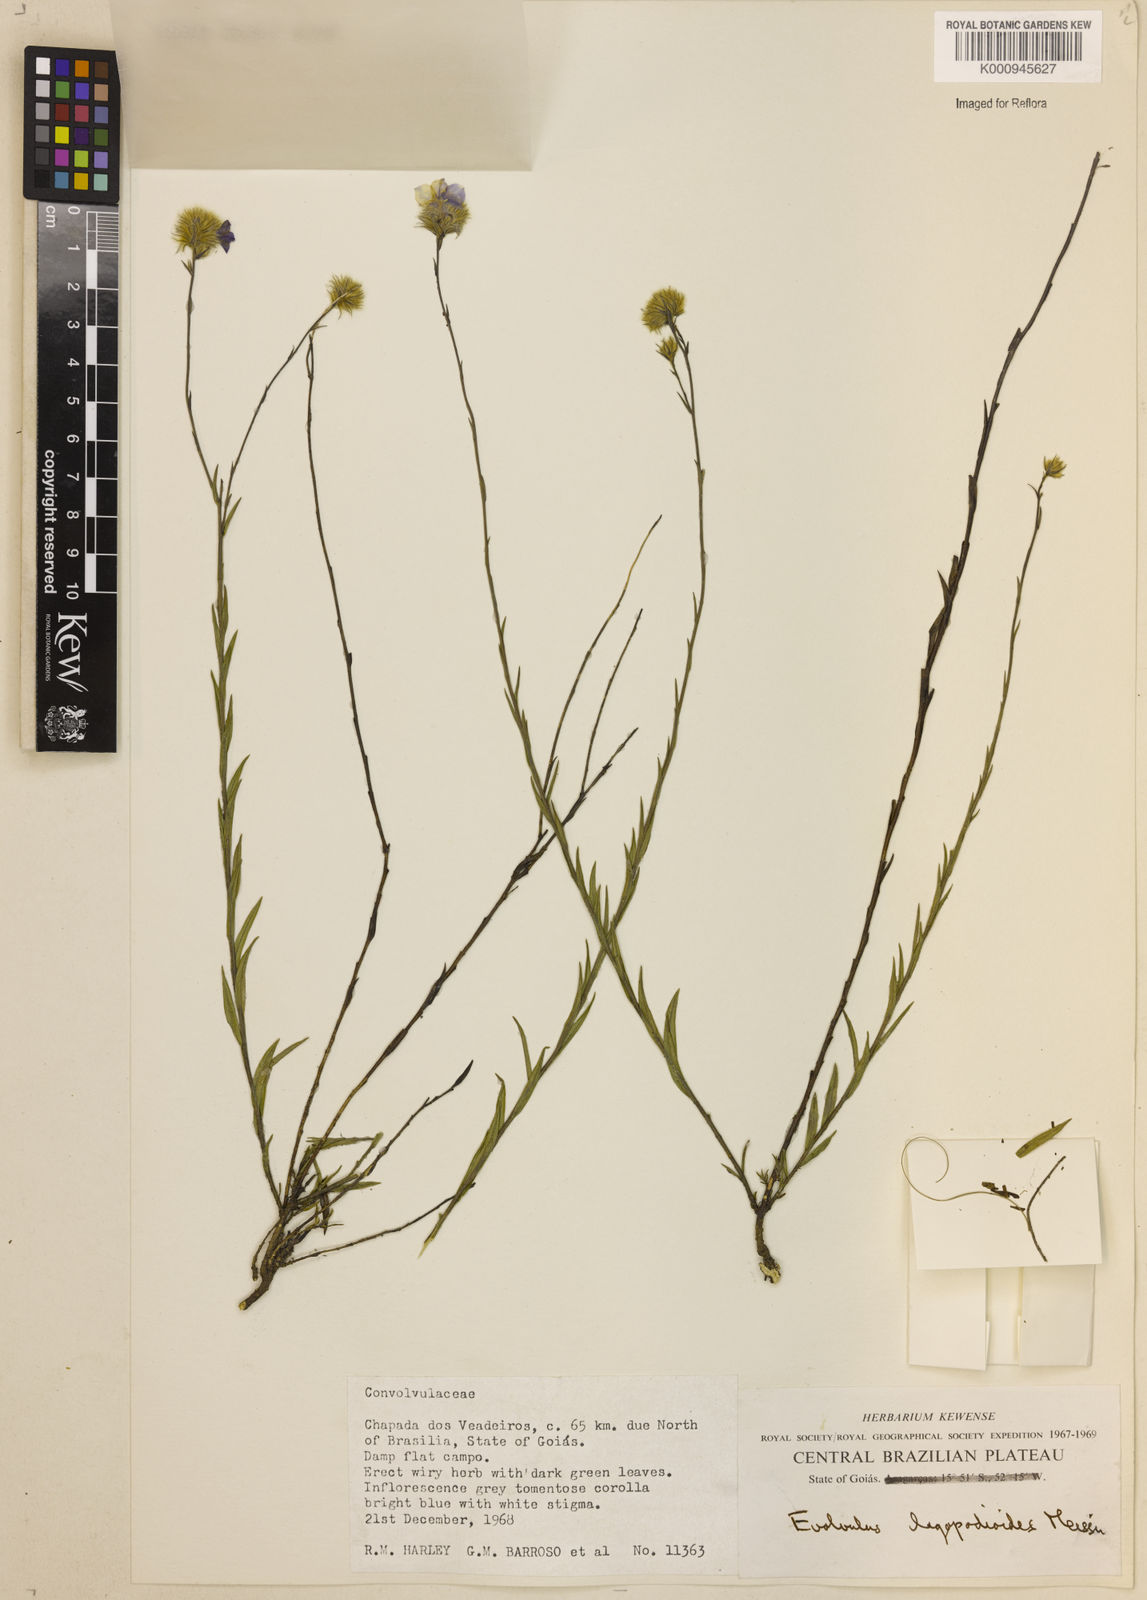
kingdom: Plantae
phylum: Tracheophyta
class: Magnoliopsida
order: Solanales
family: Convolvulaceae
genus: Evolvulus
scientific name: Evolvulus lagopodioides
